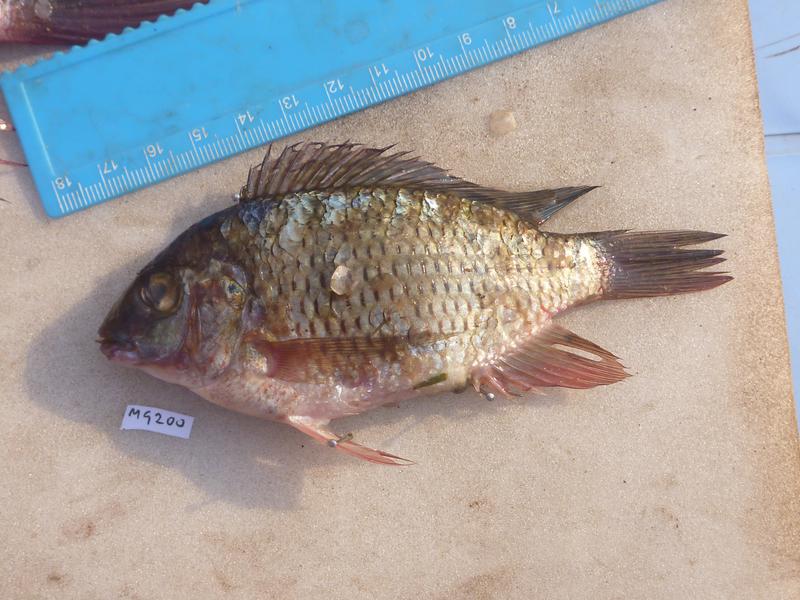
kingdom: Animalia
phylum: Chordata
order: Perciformes
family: Cichlidae
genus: Coptodon
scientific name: Coptodon rendalli
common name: Redbreast tilapia
